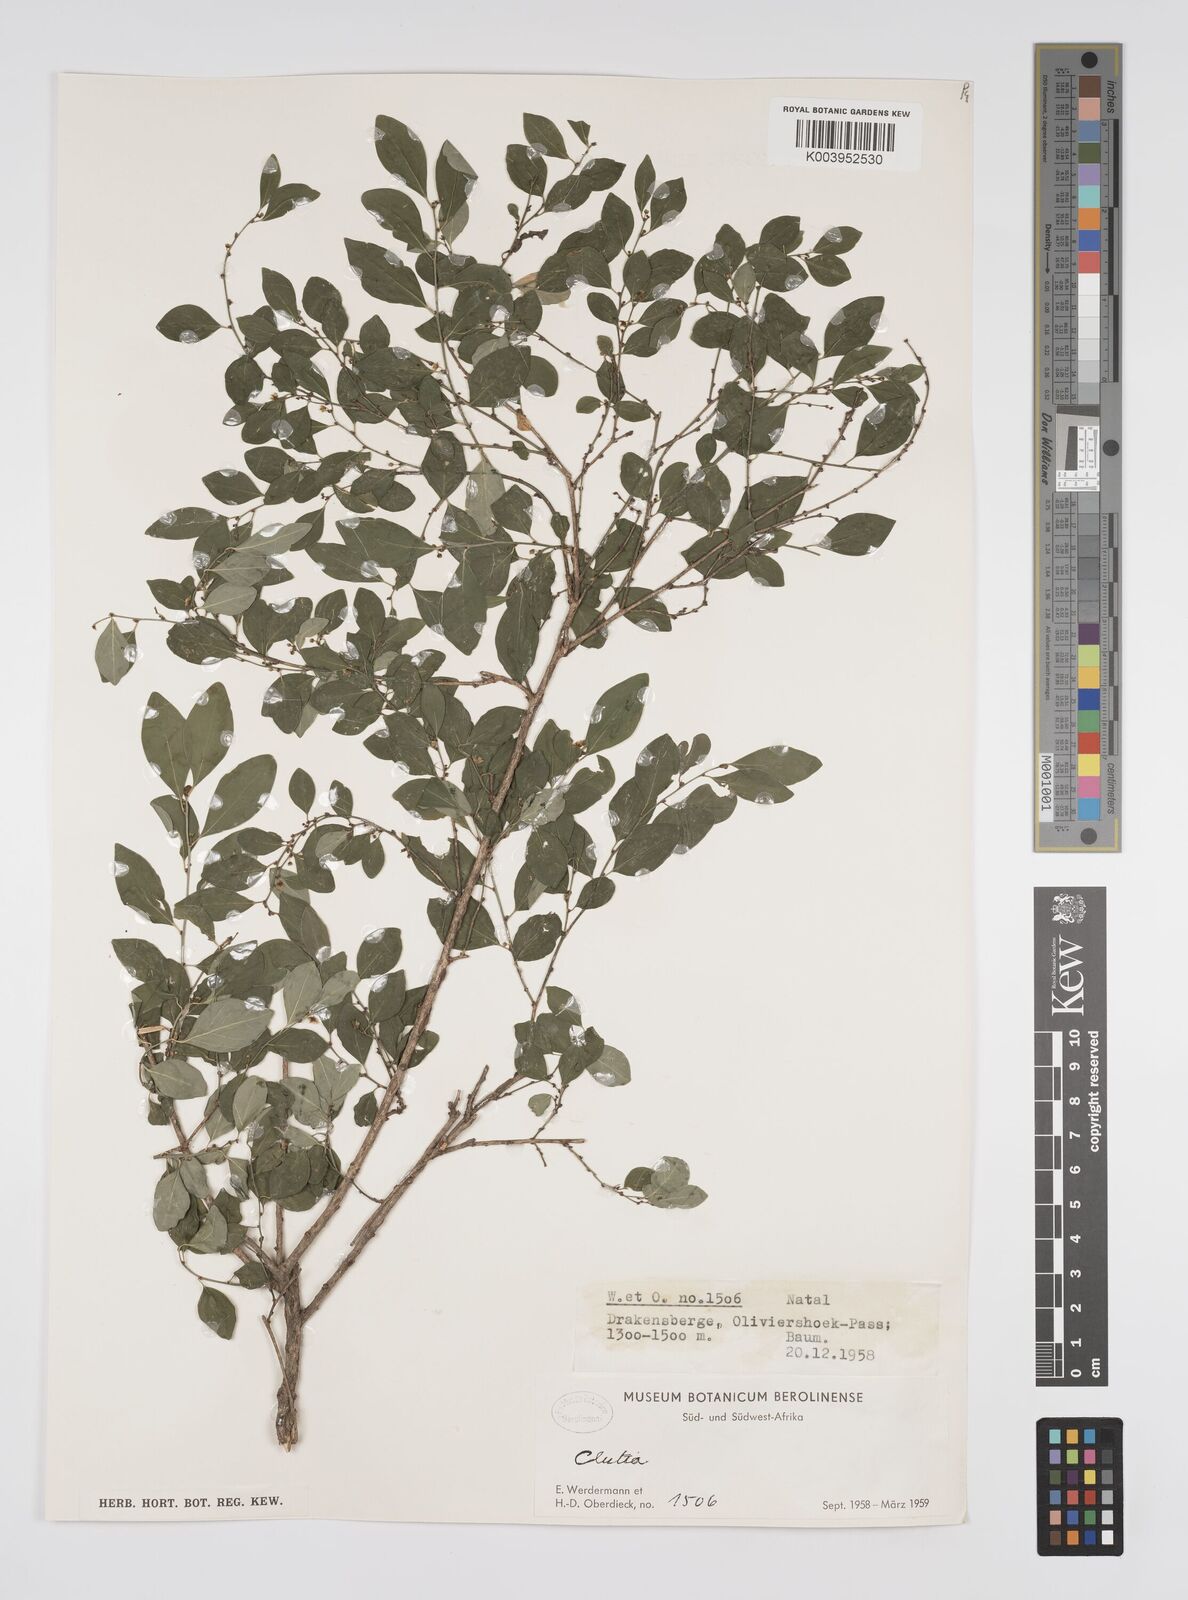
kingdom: Plantae
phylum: Tracheophyta
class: Magnoliopsida
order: Malpighiales
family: Peraceae
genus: Clutia
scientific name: Clutia
